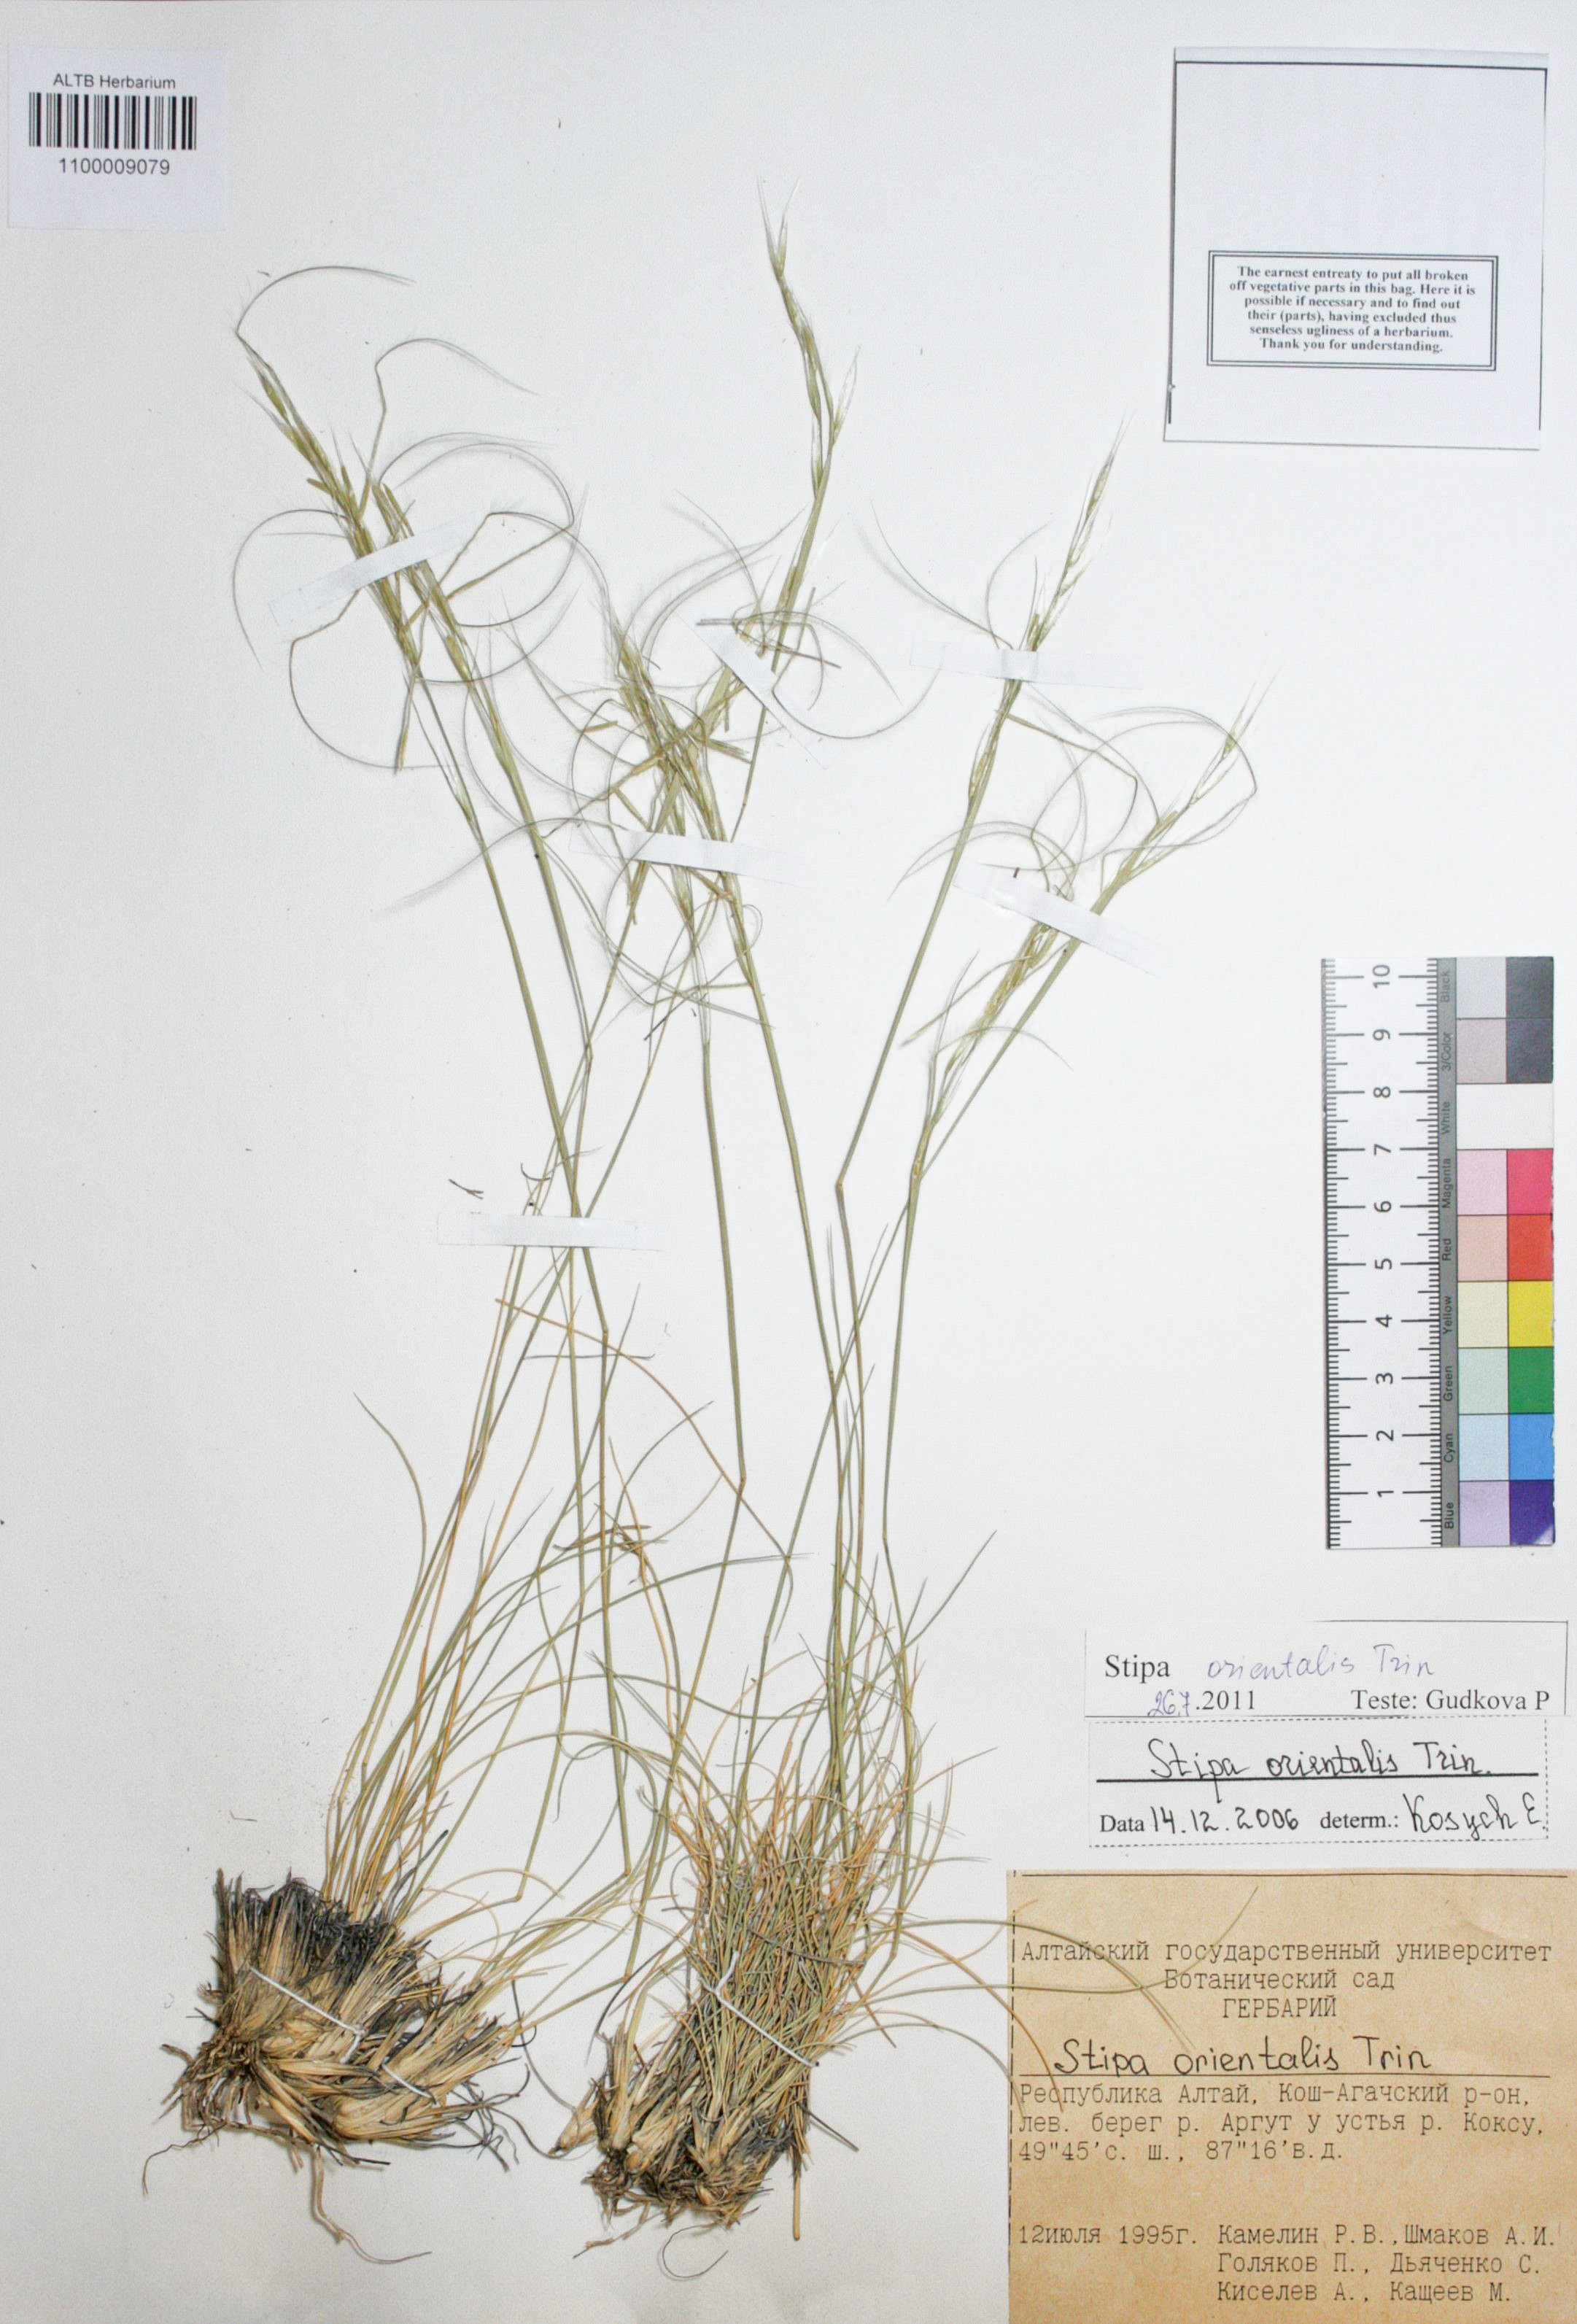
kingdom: Plantae
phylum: Tracheophyta
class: Liliopsida
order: Poales
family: Poaceae
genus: Stipa
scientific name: Stipa orientalis
